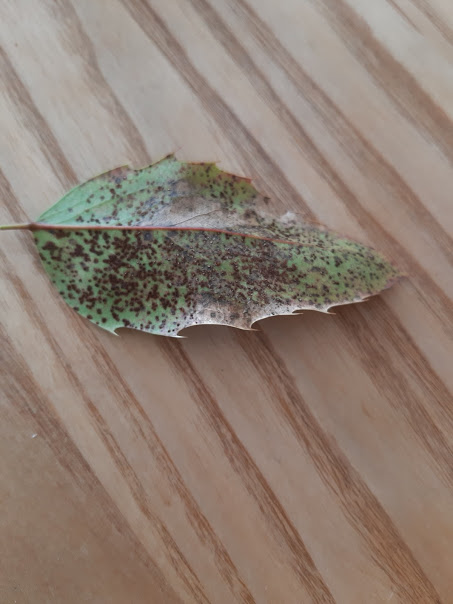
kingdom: Fungi
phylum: Basidiomycota
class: Pucciniomycetes
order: Pucciniales
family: Pucciniaceae
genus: Cumminsiella
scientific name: Cumminsiella mirabilissima
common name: mahonierust
